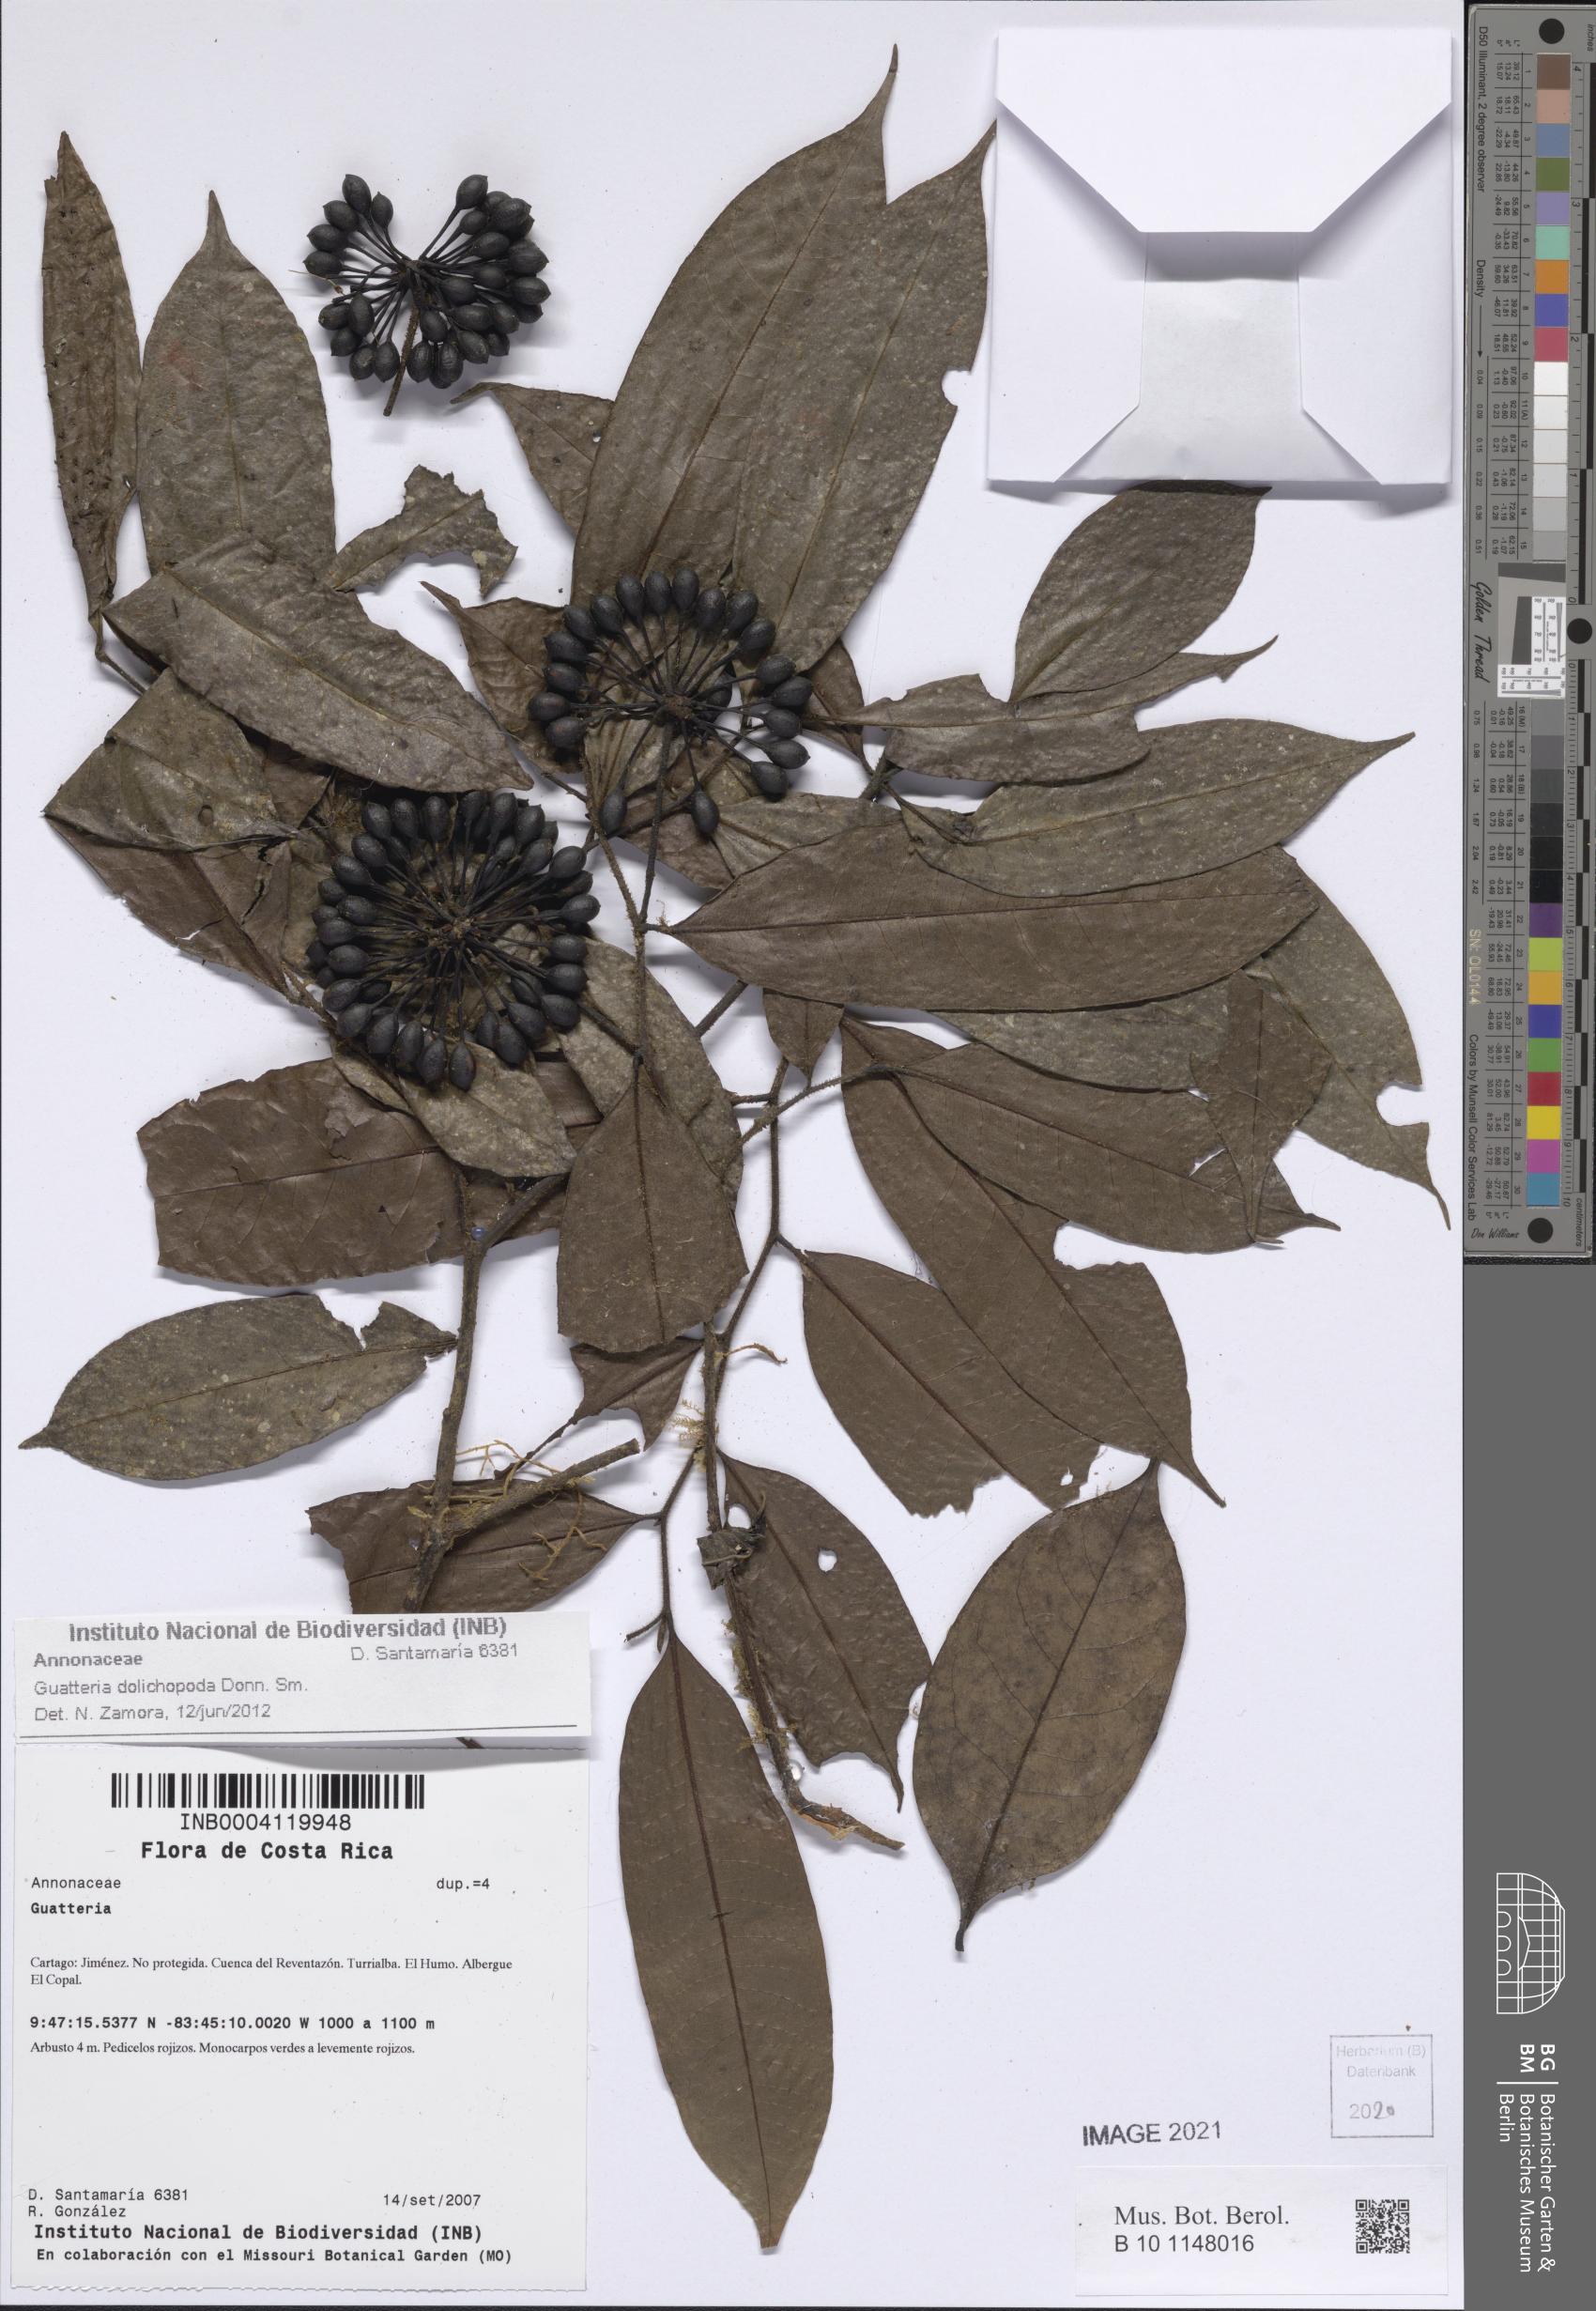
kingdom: Plantae
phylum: Tracheophyta
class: Magnoliopsida
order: Magnoliales
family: Annonaceae
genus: Guatteria
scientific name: Guatteria dolichopoda
